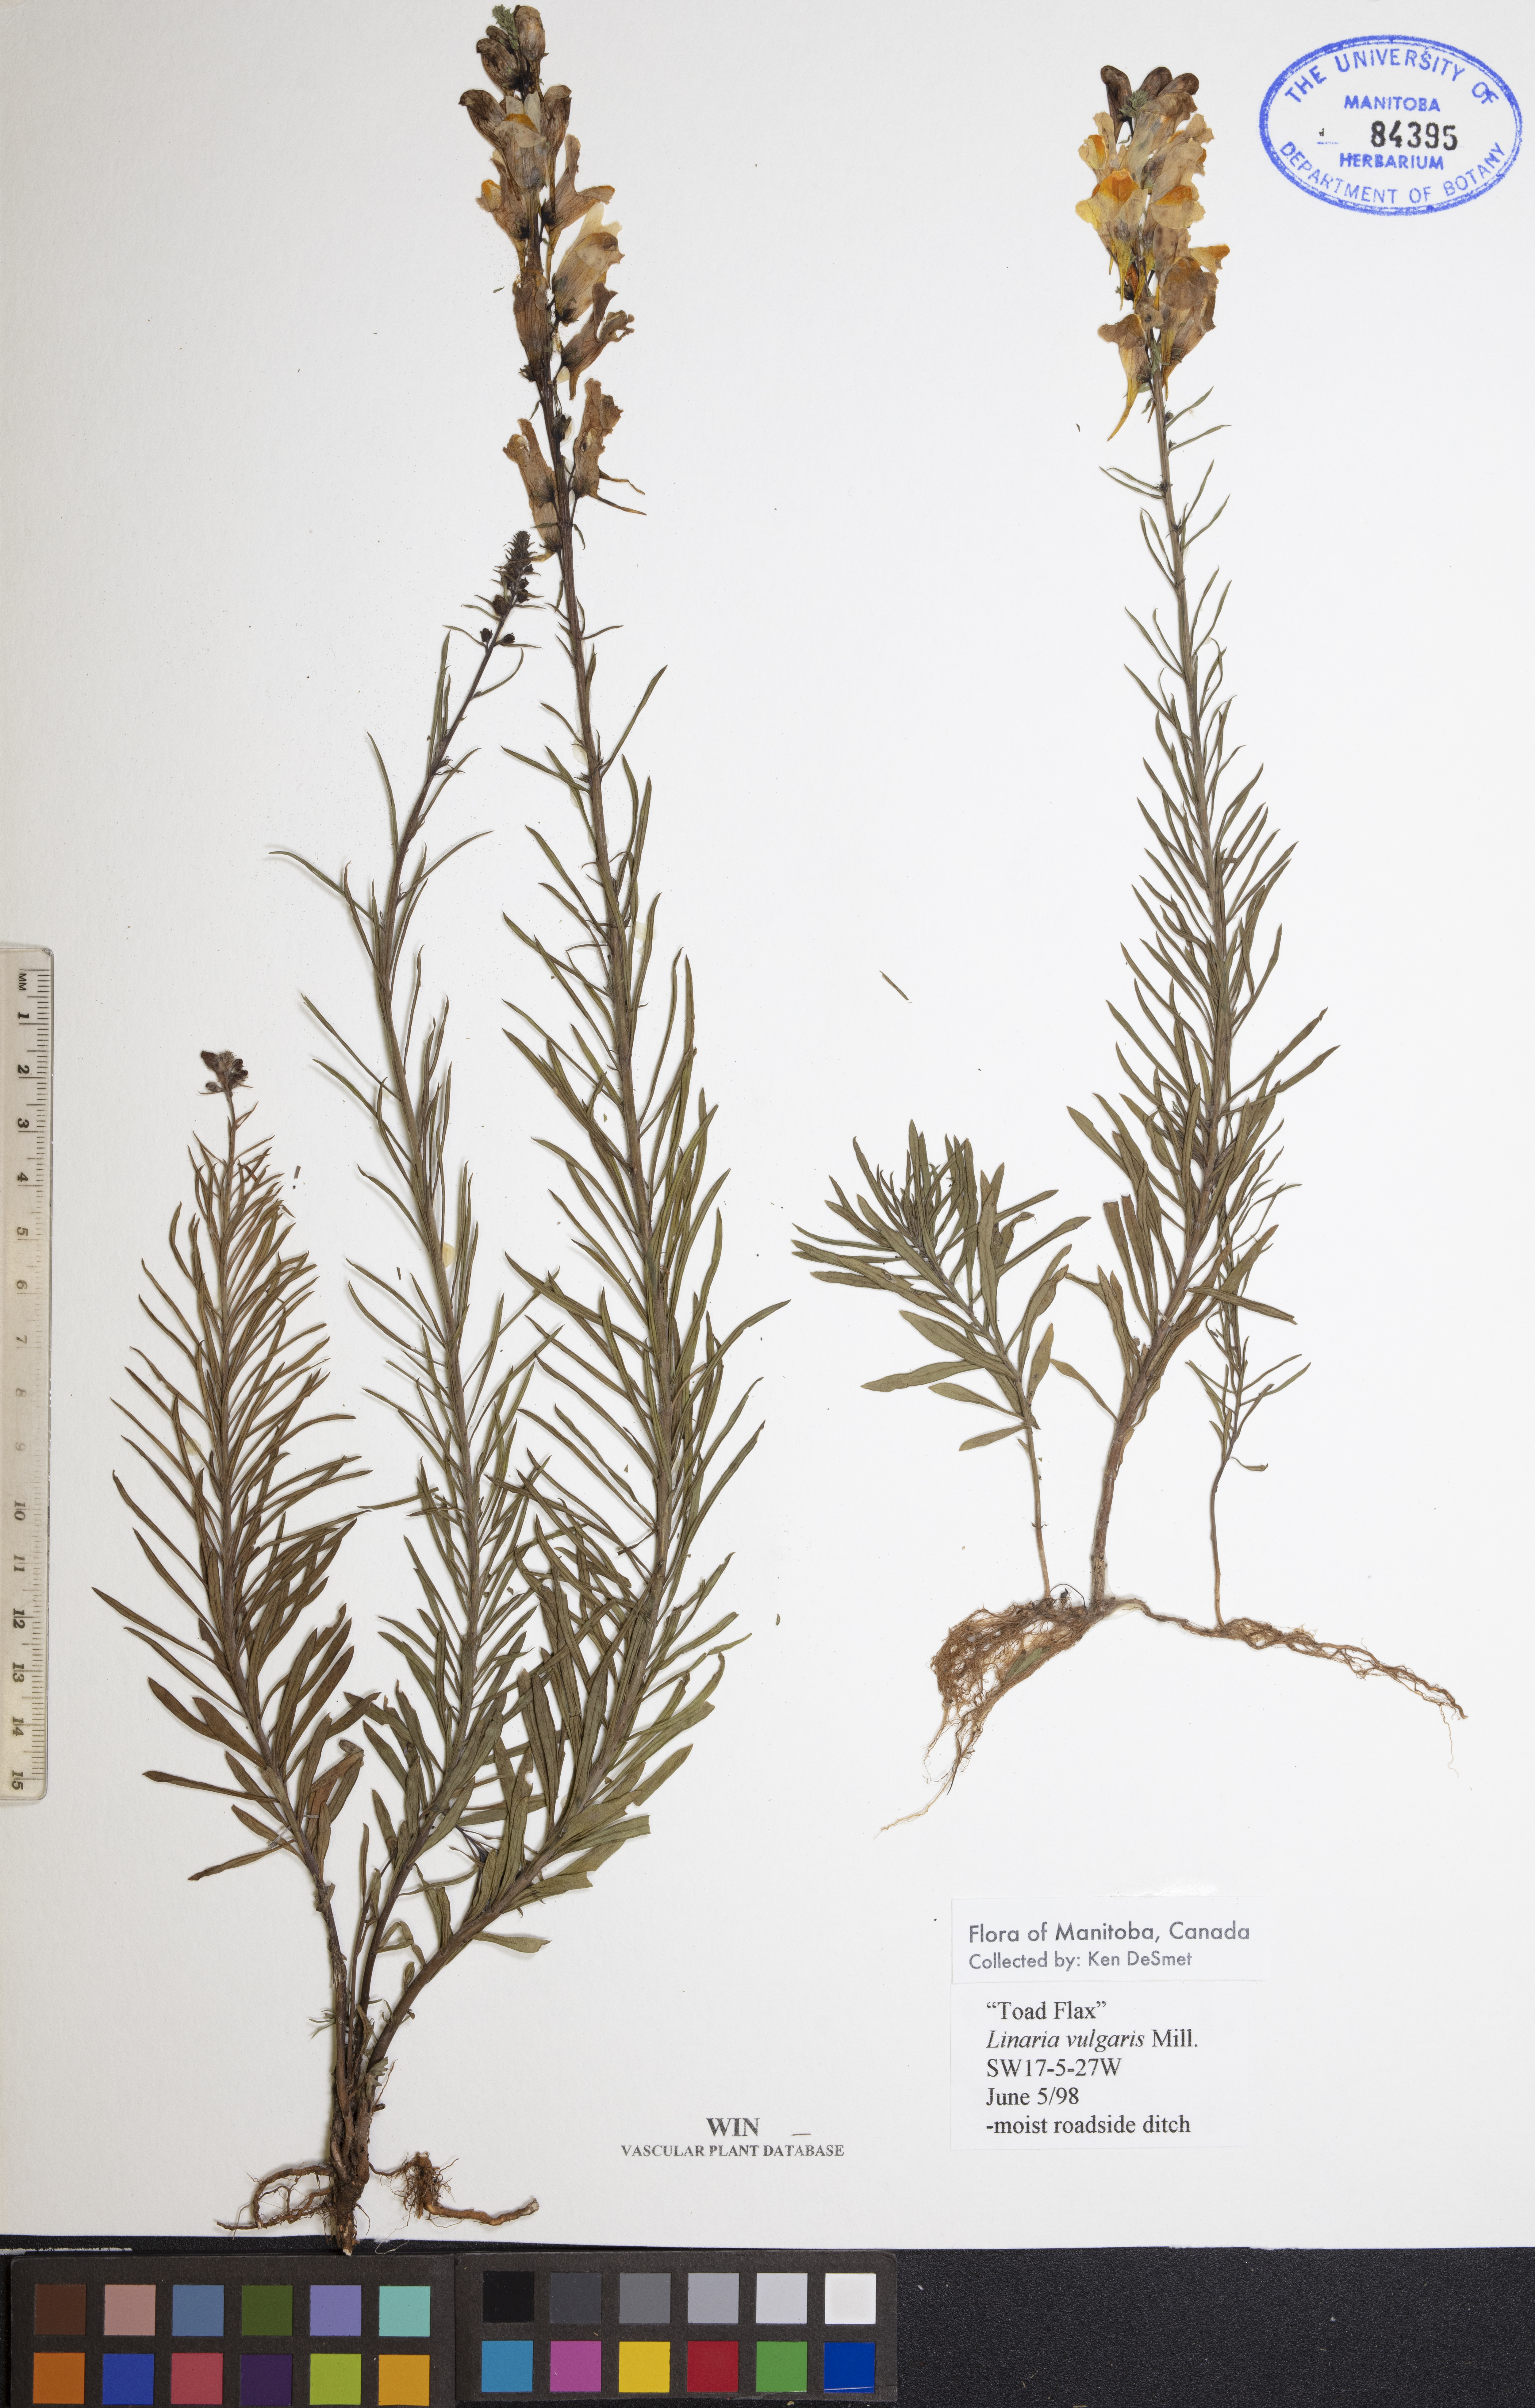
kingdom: Plantae
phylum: Tracheophyta
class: Magnoliopsida
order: Lamiales
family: Plantaginaceae
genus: Linaria
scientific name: Linaria vulgaris
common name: Butter and eggs
